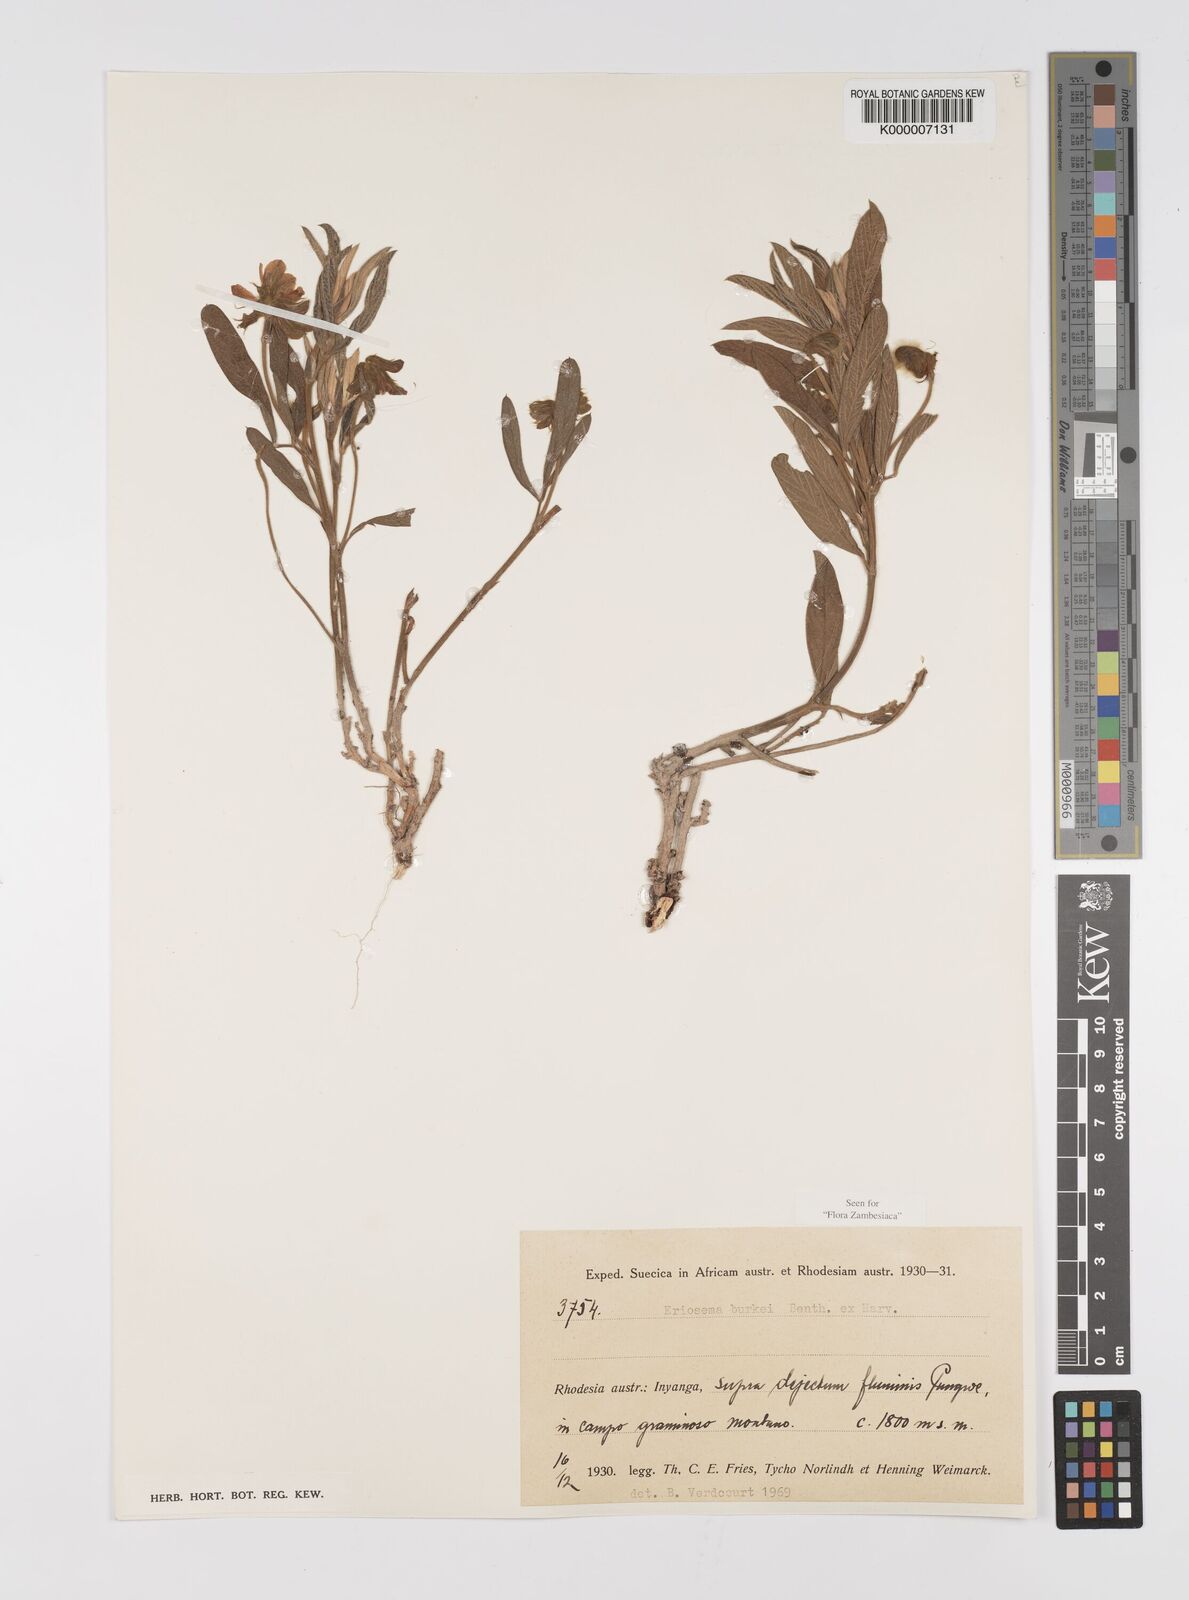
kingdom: Plantae
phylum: Tracheophyta
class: Magnoliopsida
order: Fabales
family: Fabaceae
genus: Eriosema
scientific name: Eriosema burkei
